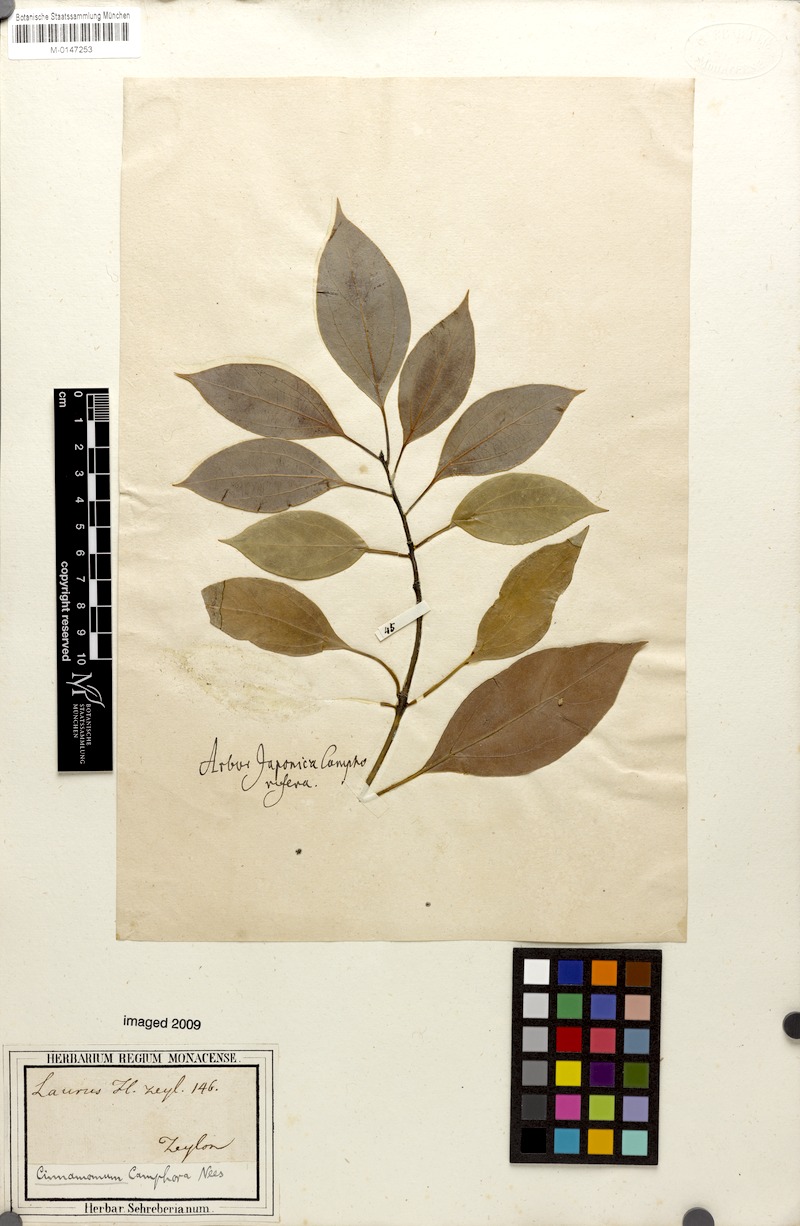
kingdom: Plantae
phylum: Tracheophyta
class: Magnoliopsida
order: Laurales
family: Lauraceae
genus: Cinnamomum
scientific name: Cinnamomum camphora
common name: Camphortree
